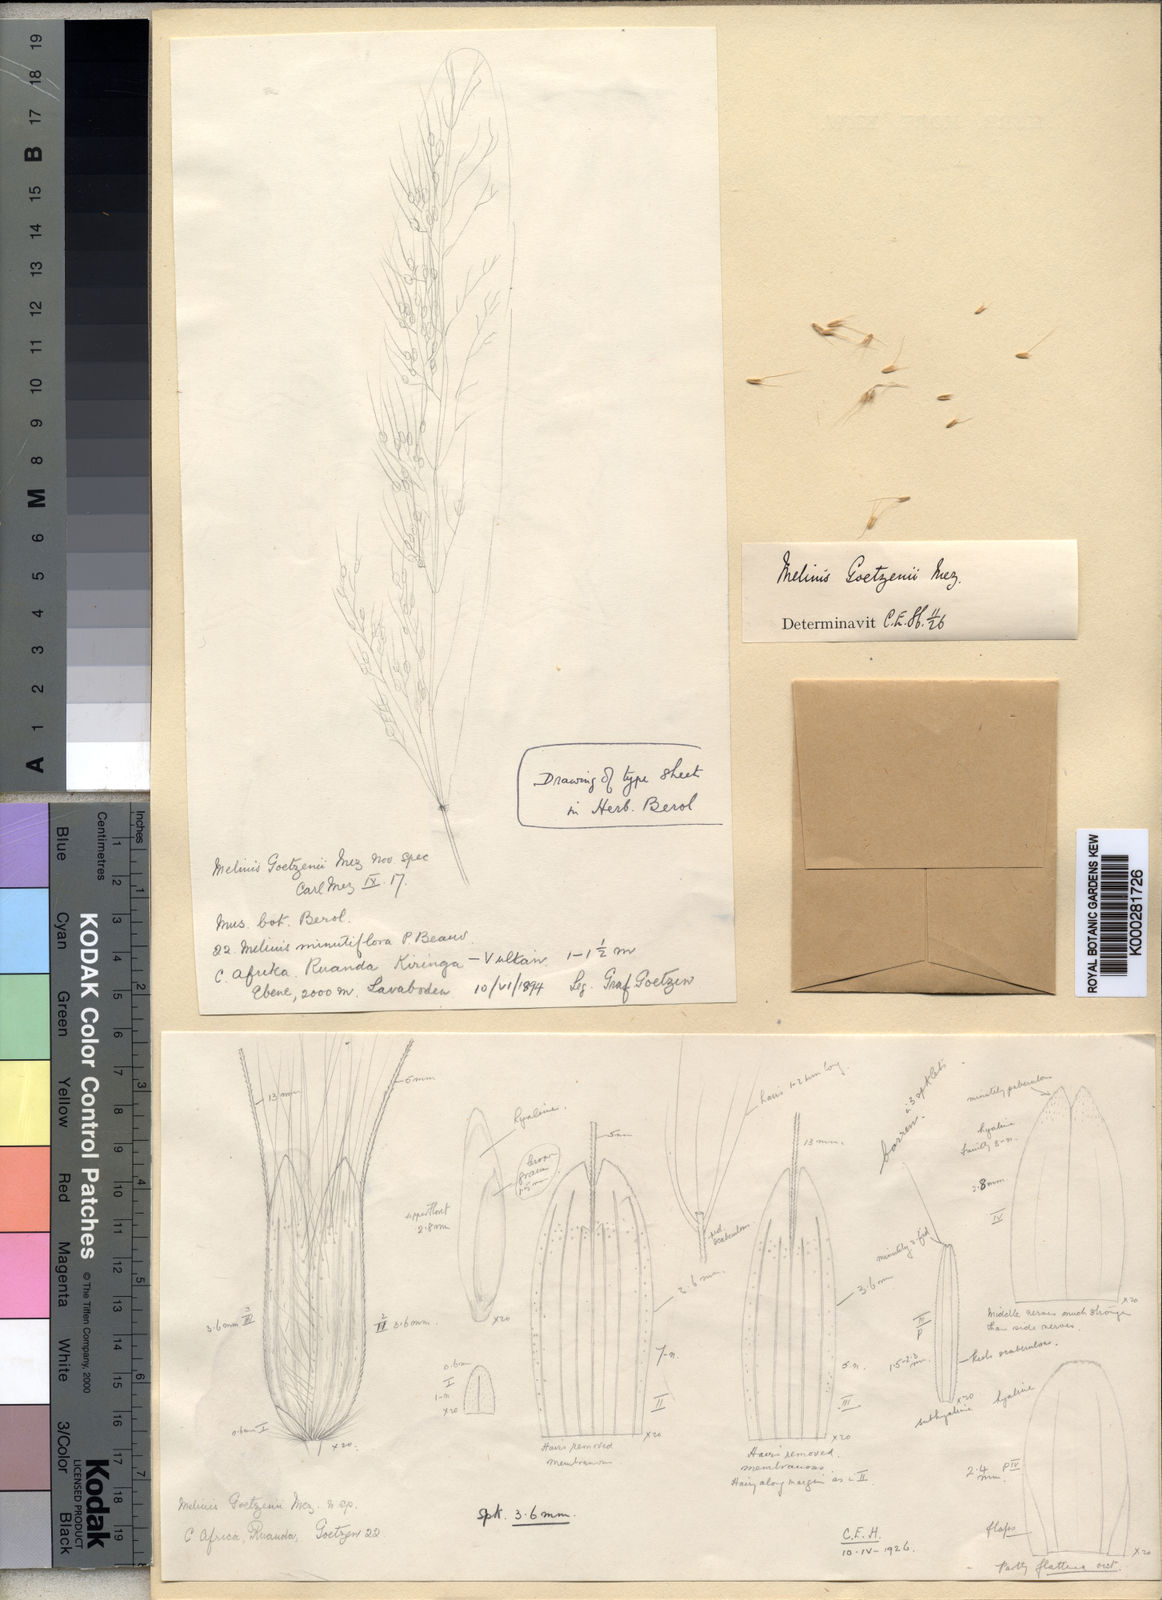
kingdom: Plantae
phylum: Tracheophyta
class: Liliopsida
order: Poales
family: Poaceae
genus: Melinis
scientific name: Melinis ambigua
